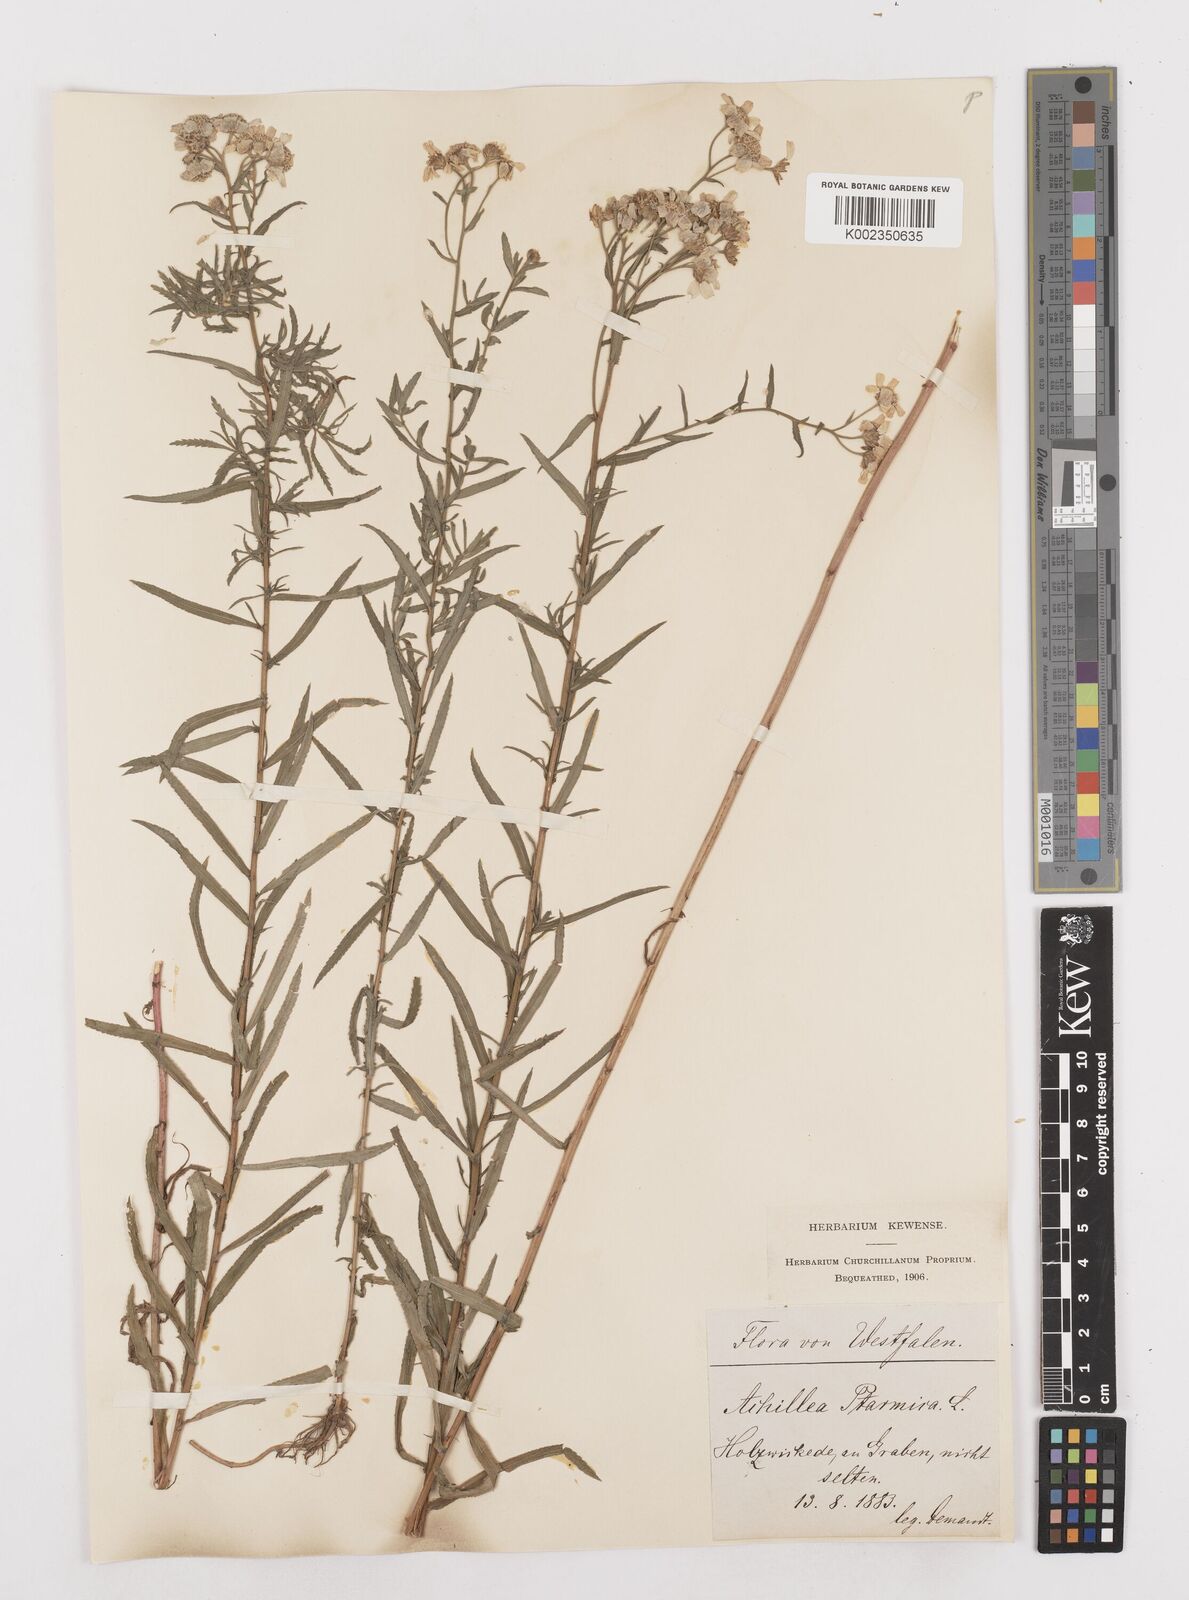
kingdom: Plantae
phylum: Tracheophyta
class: Magnoliopsida
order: Asterales
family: Asteraceae
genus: Achillea
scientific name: Achillea ptarmica
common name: Sneezeweed
